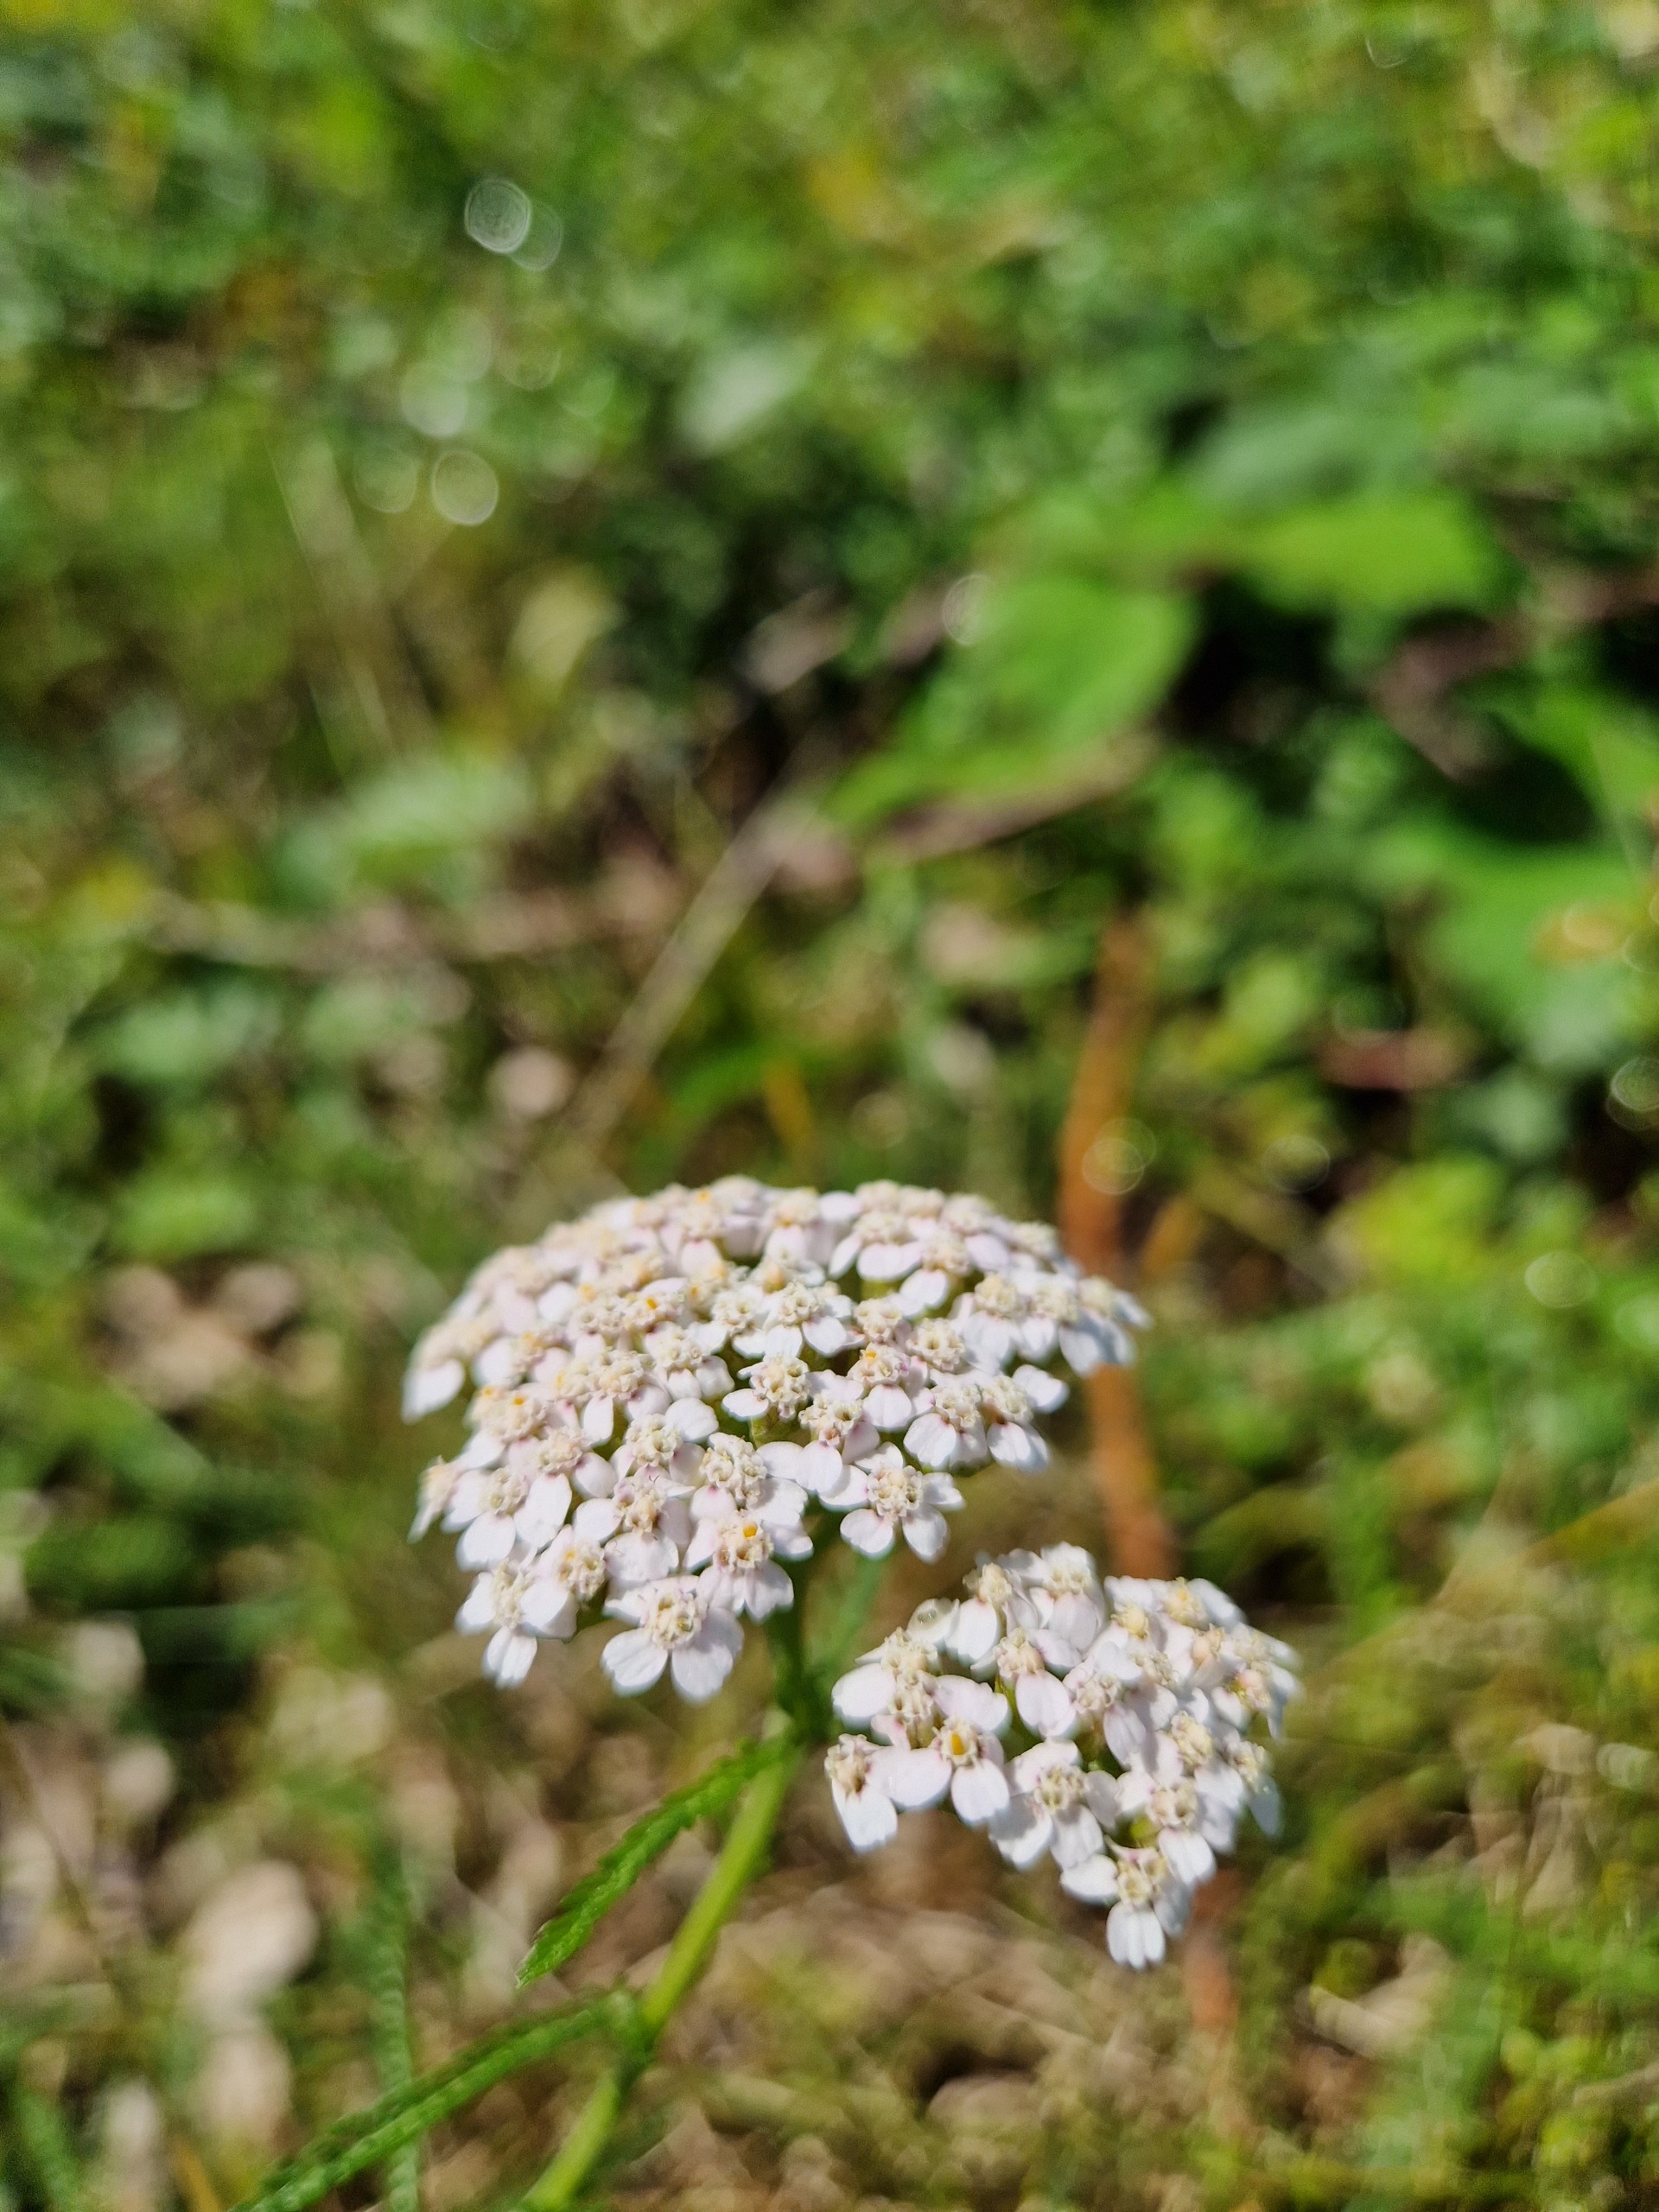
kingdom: Plantae
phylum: Tracheophyta
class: Magnoliopsida
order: Asterales
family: Asteraceae
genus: Achillea
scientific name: Achillea millefolium
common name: Almindelig røllike
